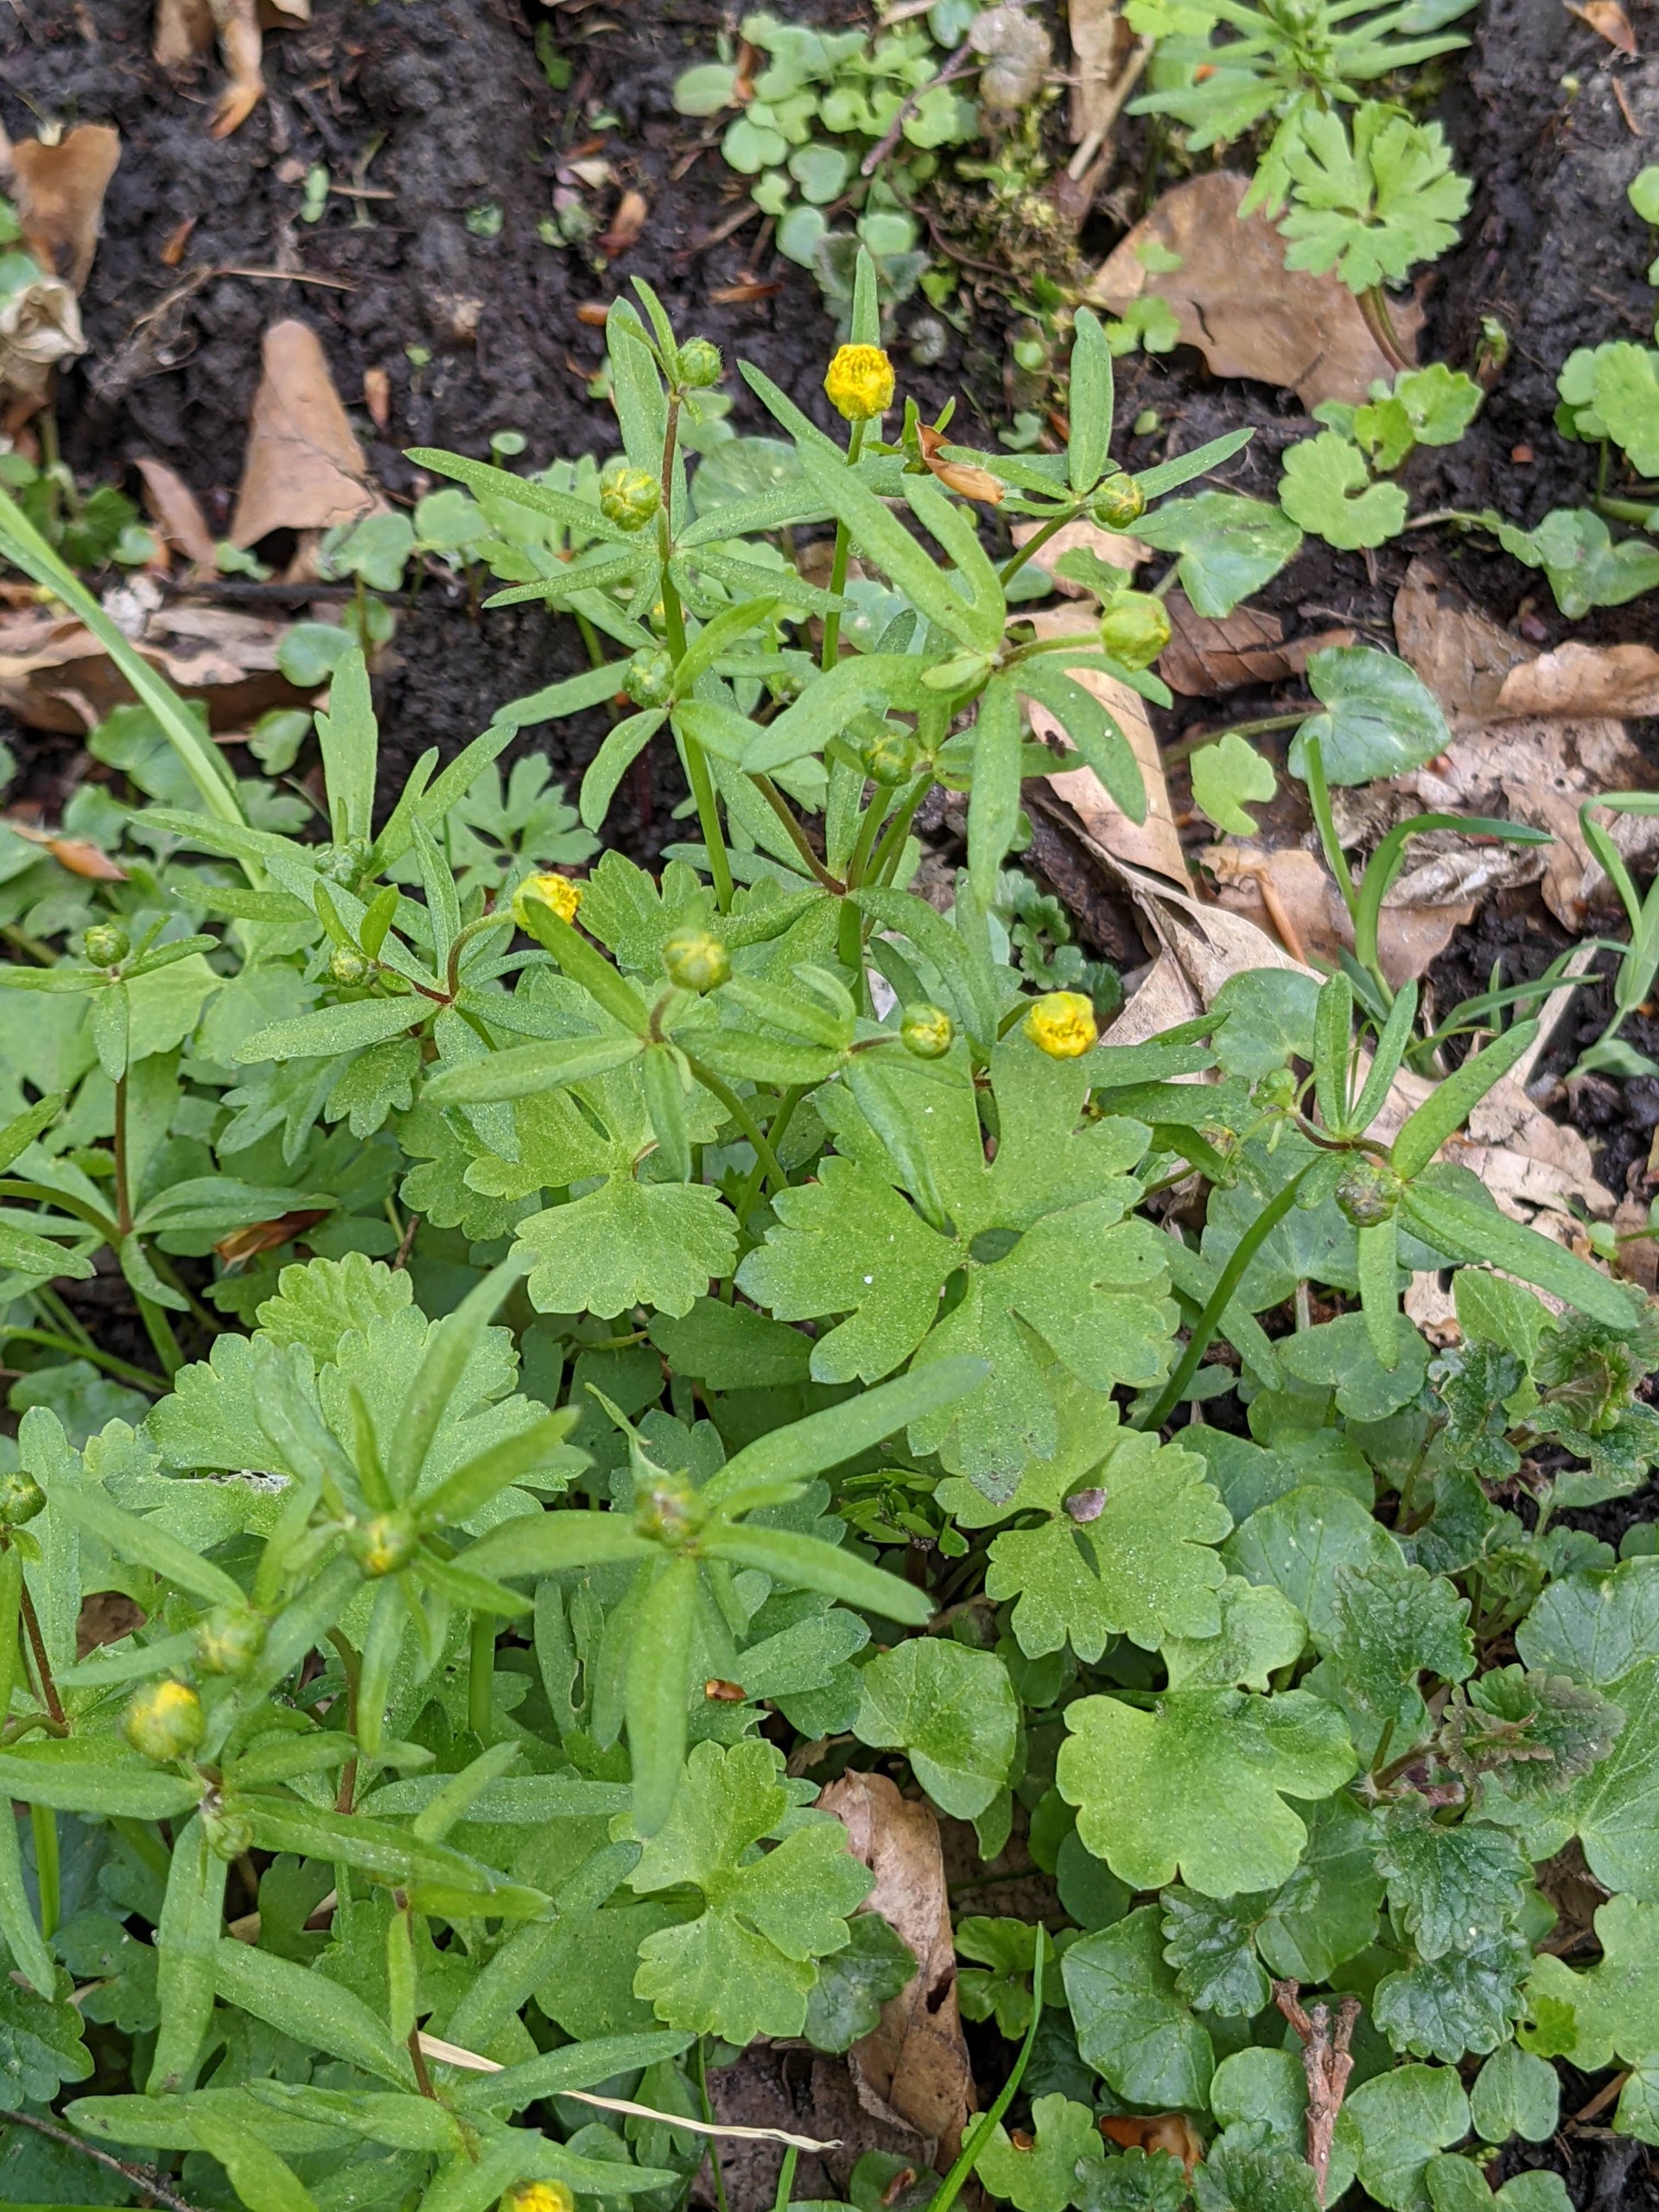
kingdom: Plantae
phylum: Tracheophyta
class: Magnoliopsida
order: Ranunculales
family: Ranunculaceae
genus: Ranunculus
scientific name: Ranunculus auricomus
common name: Nyrebladet ranunkel
